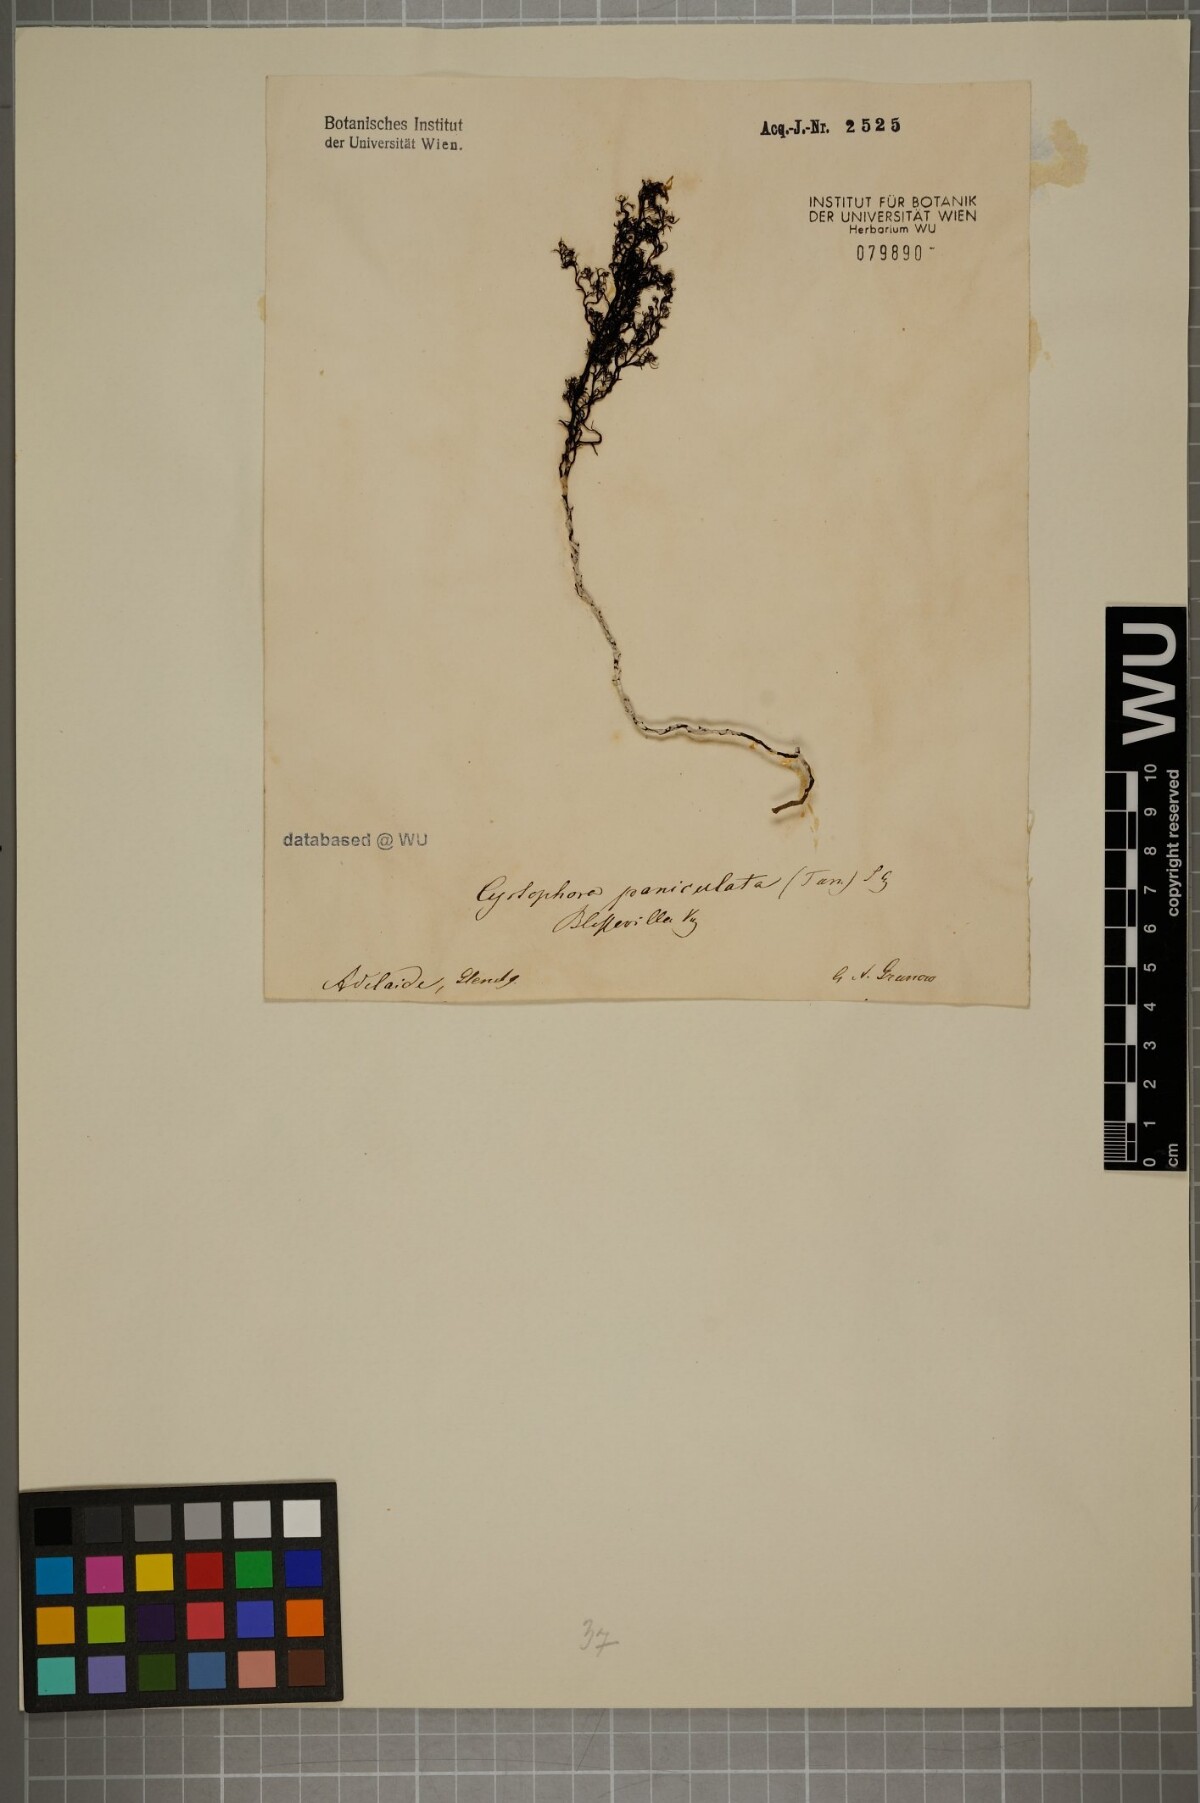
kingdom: Chromista
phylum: Ochrophyta
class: Phaeophyceae
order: Fucales
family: Sargassaceae
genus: Acrocarpia
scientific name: Acrocarpia paniculata
